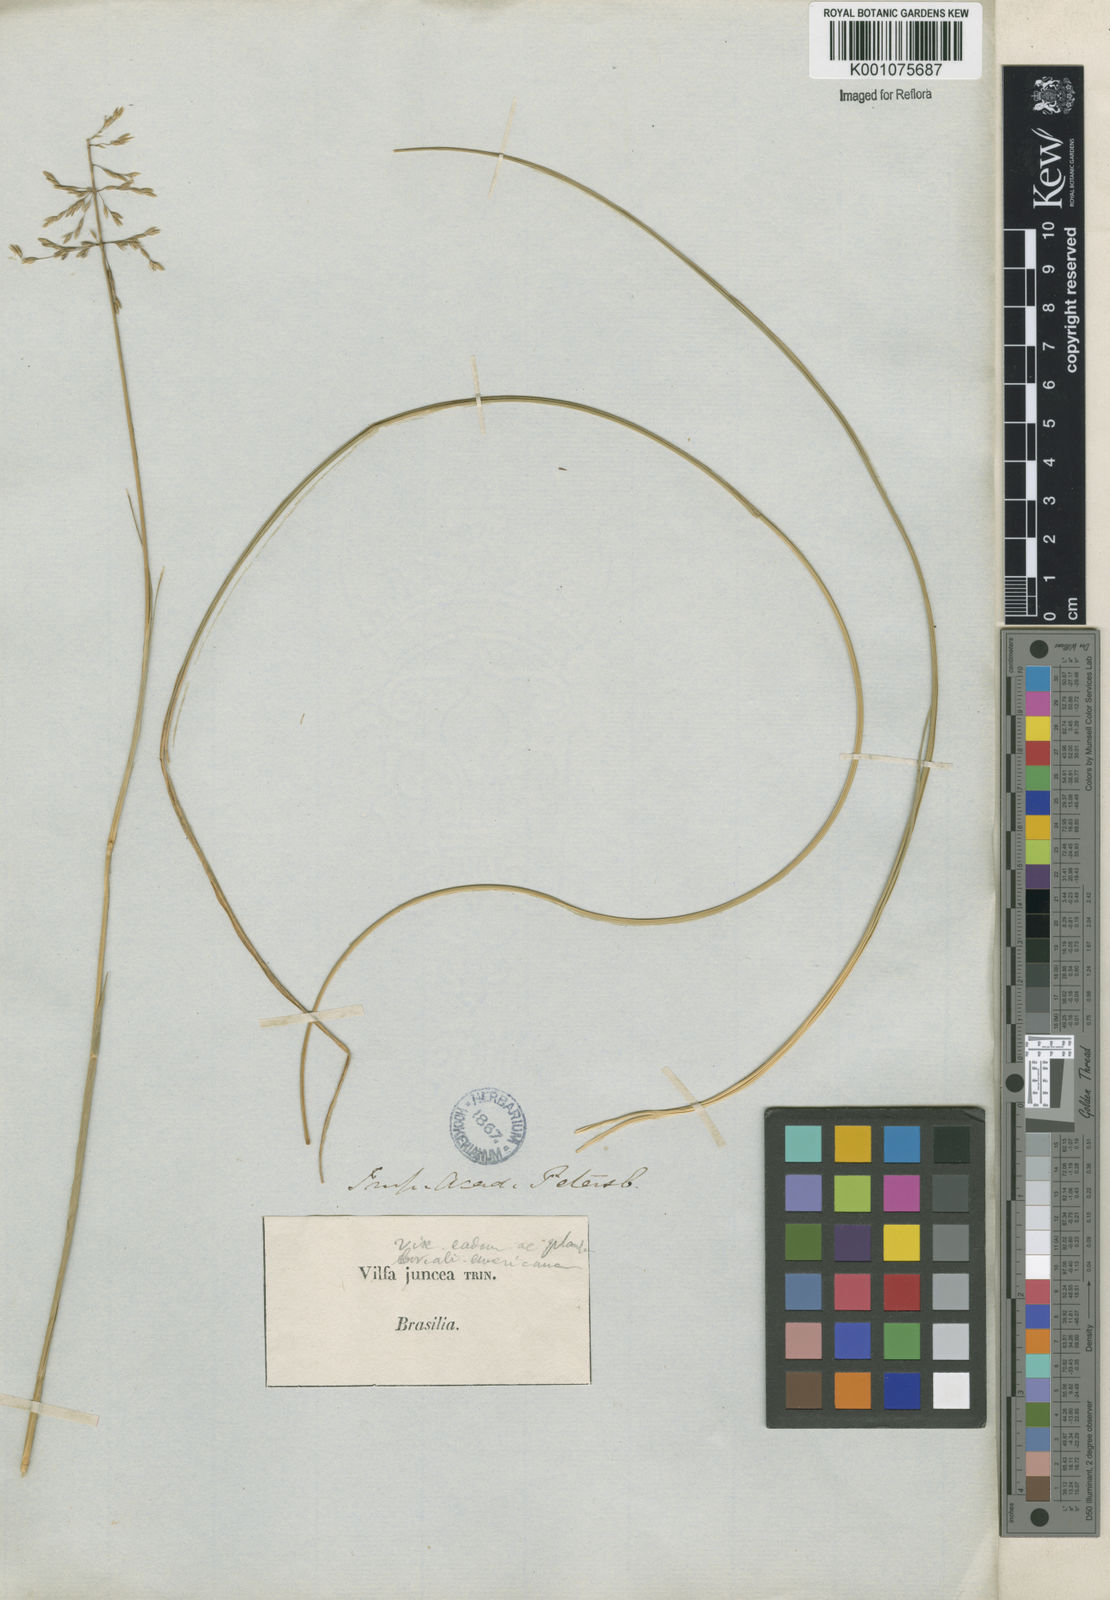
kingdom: Plantae
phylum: Tracheophyta
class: Liliopsida
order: Poales
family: Poaceae
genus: Sporobolus
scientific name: Sporobolus cubensis
